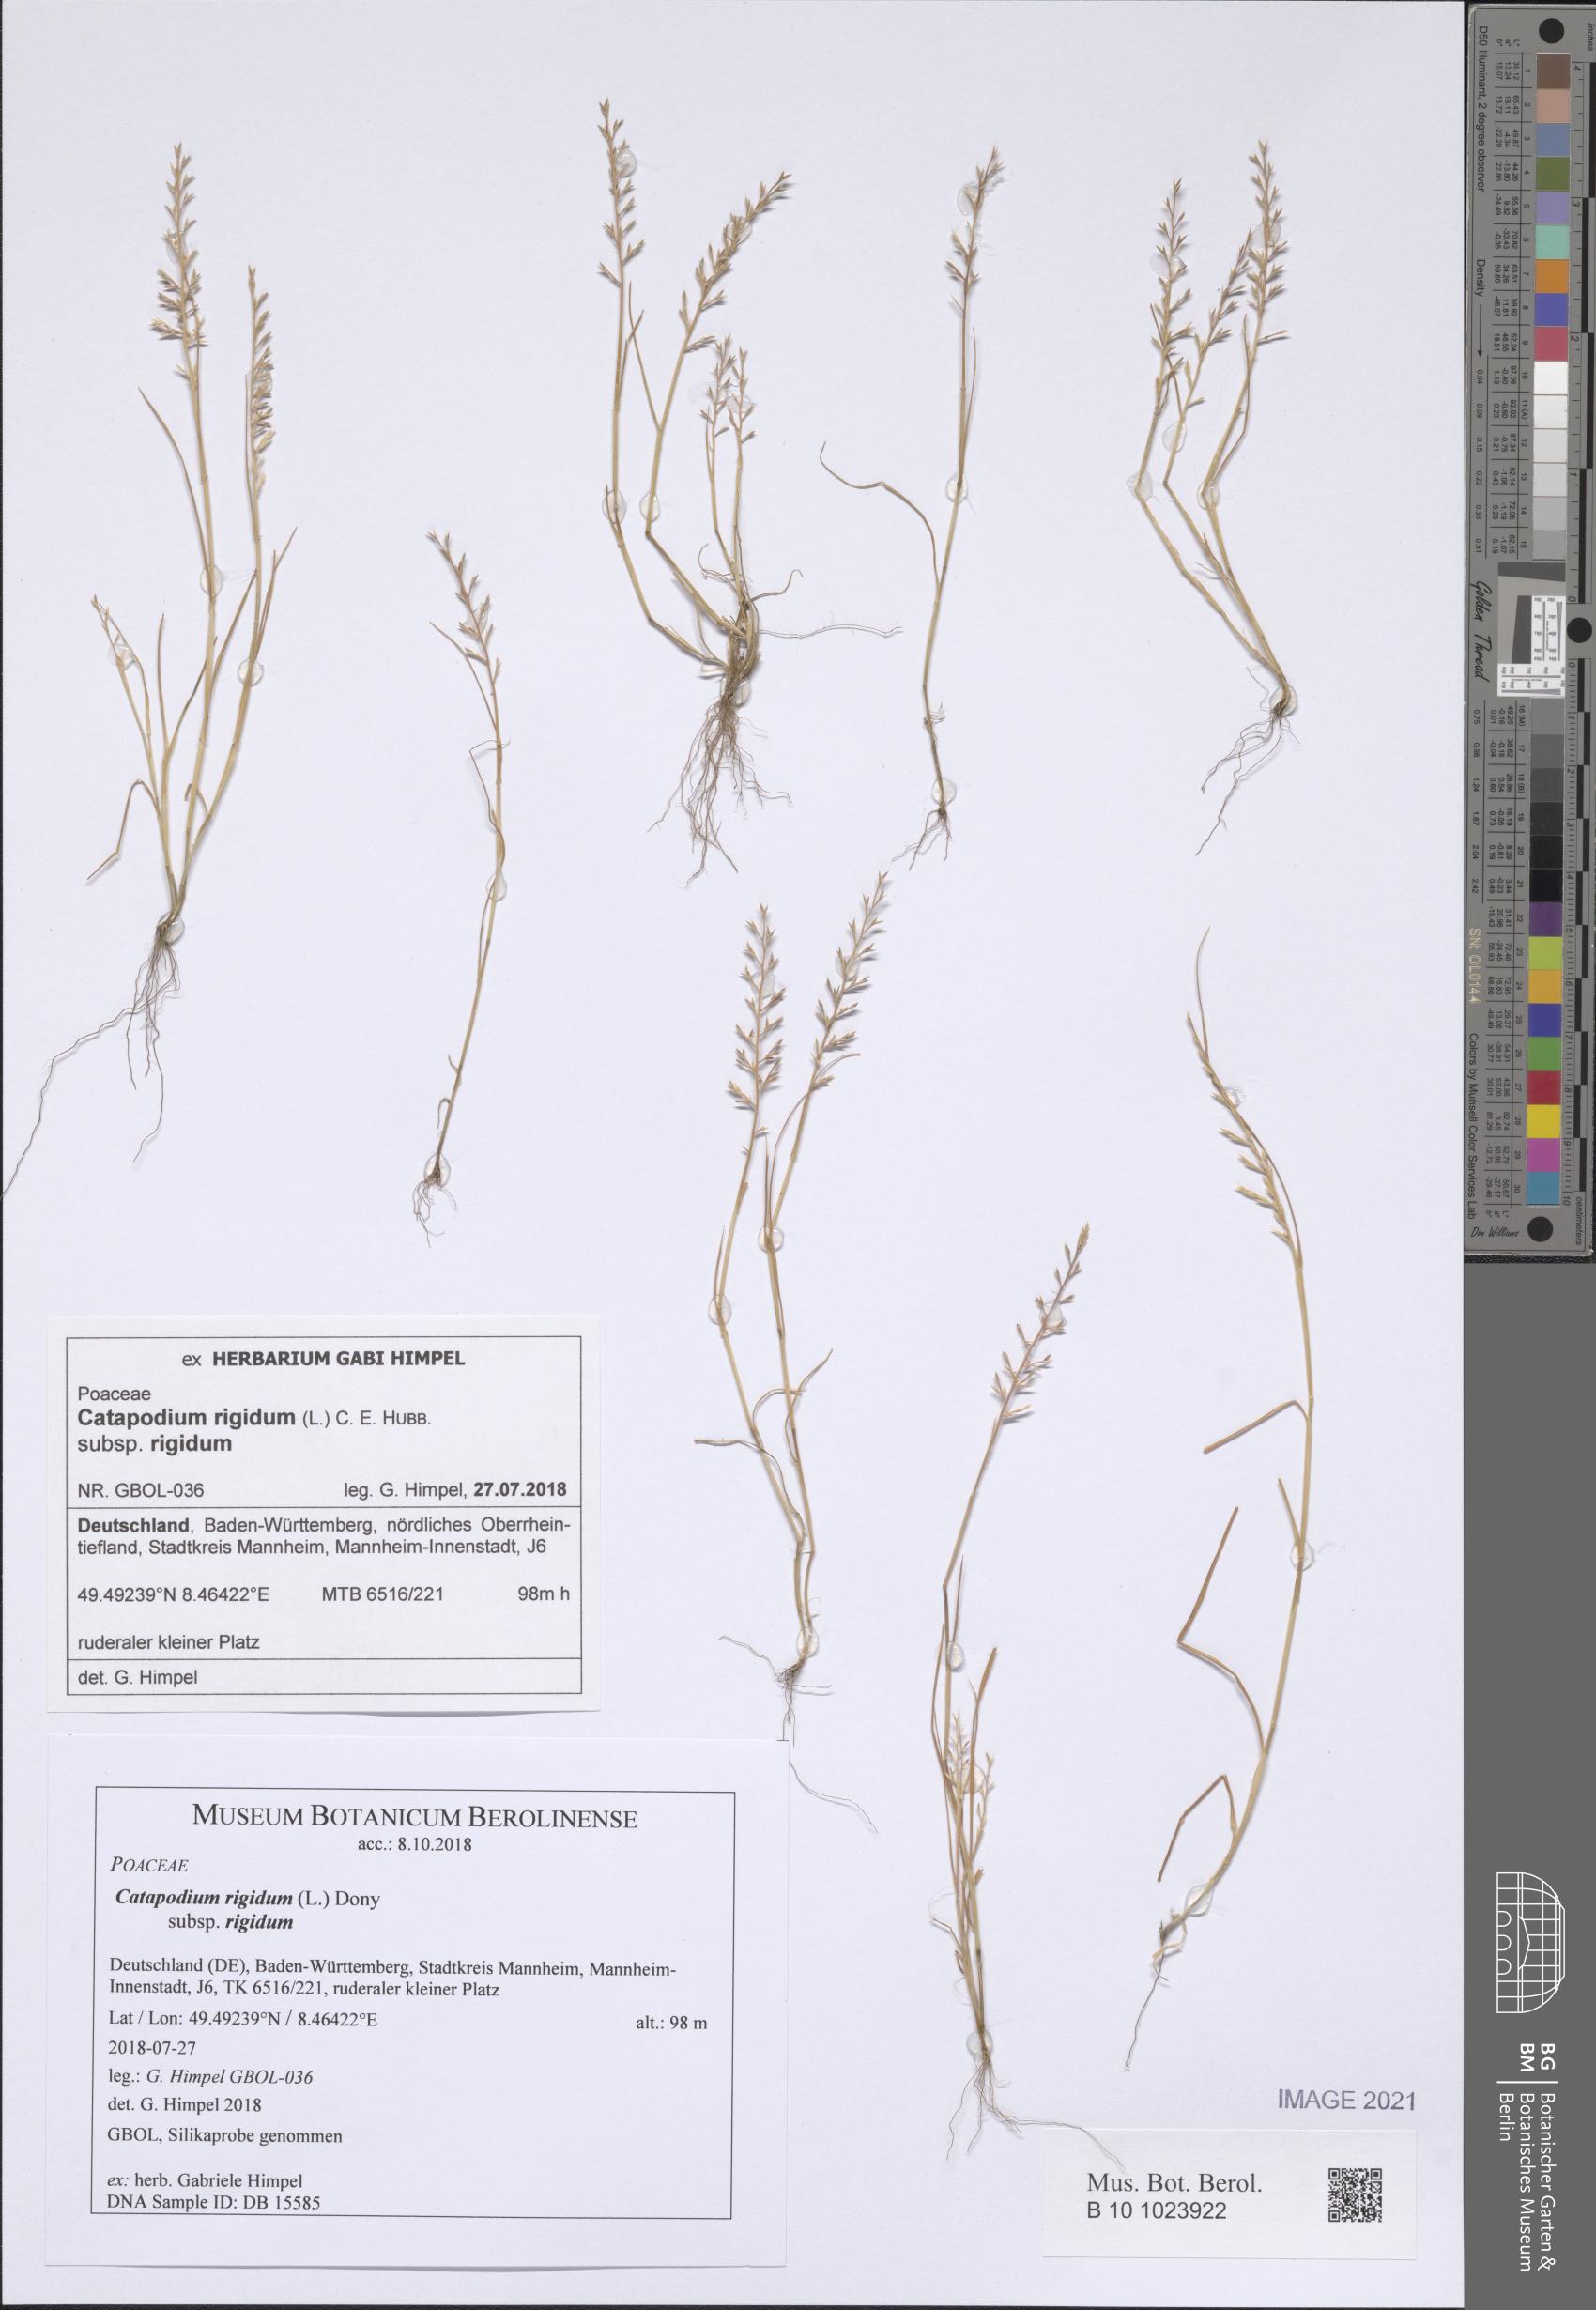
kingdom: Plantae
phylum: Tracheophyta
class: Liliopsida
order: Poales
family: Poaceae
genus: Catapodium
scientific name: Catapodium rigidum
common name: Fern-grass
